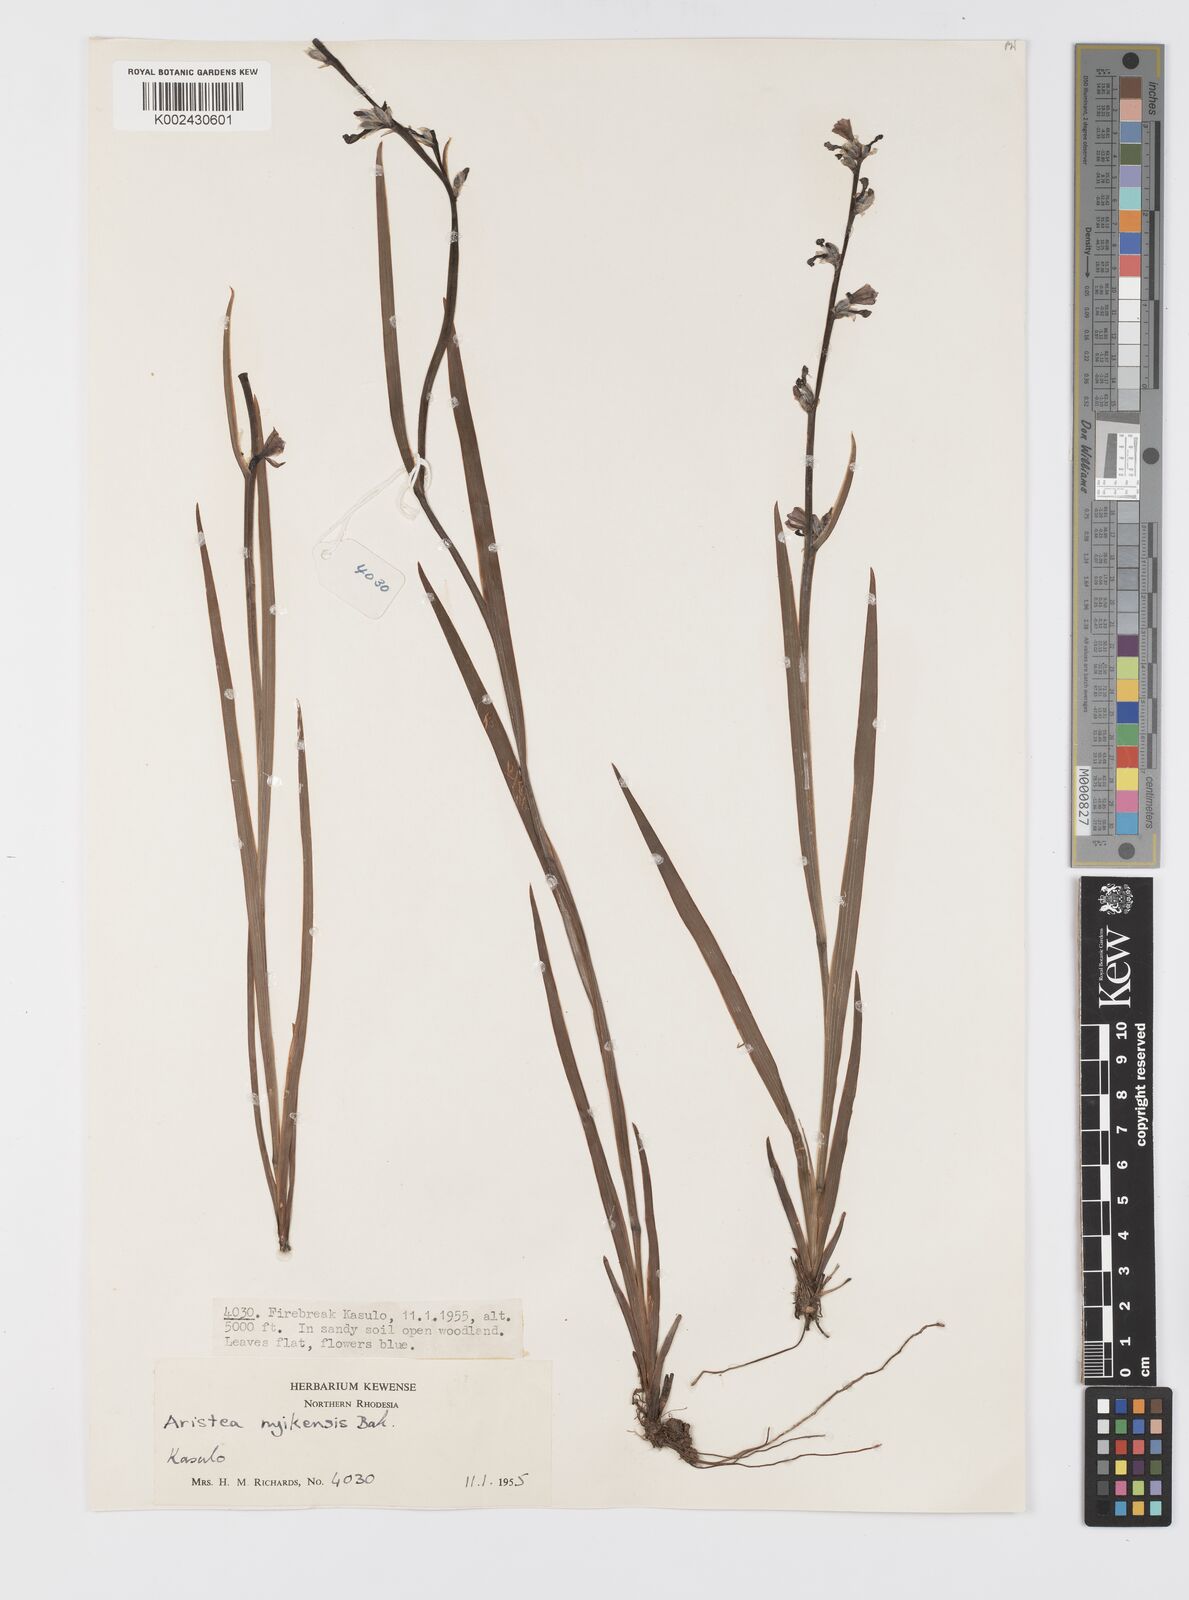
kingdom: Plantae
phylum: Tracheophyta
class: Liliopsida
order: Asparagales
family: Iridaceae
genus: Aristea
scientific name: Aristea nyikensis
